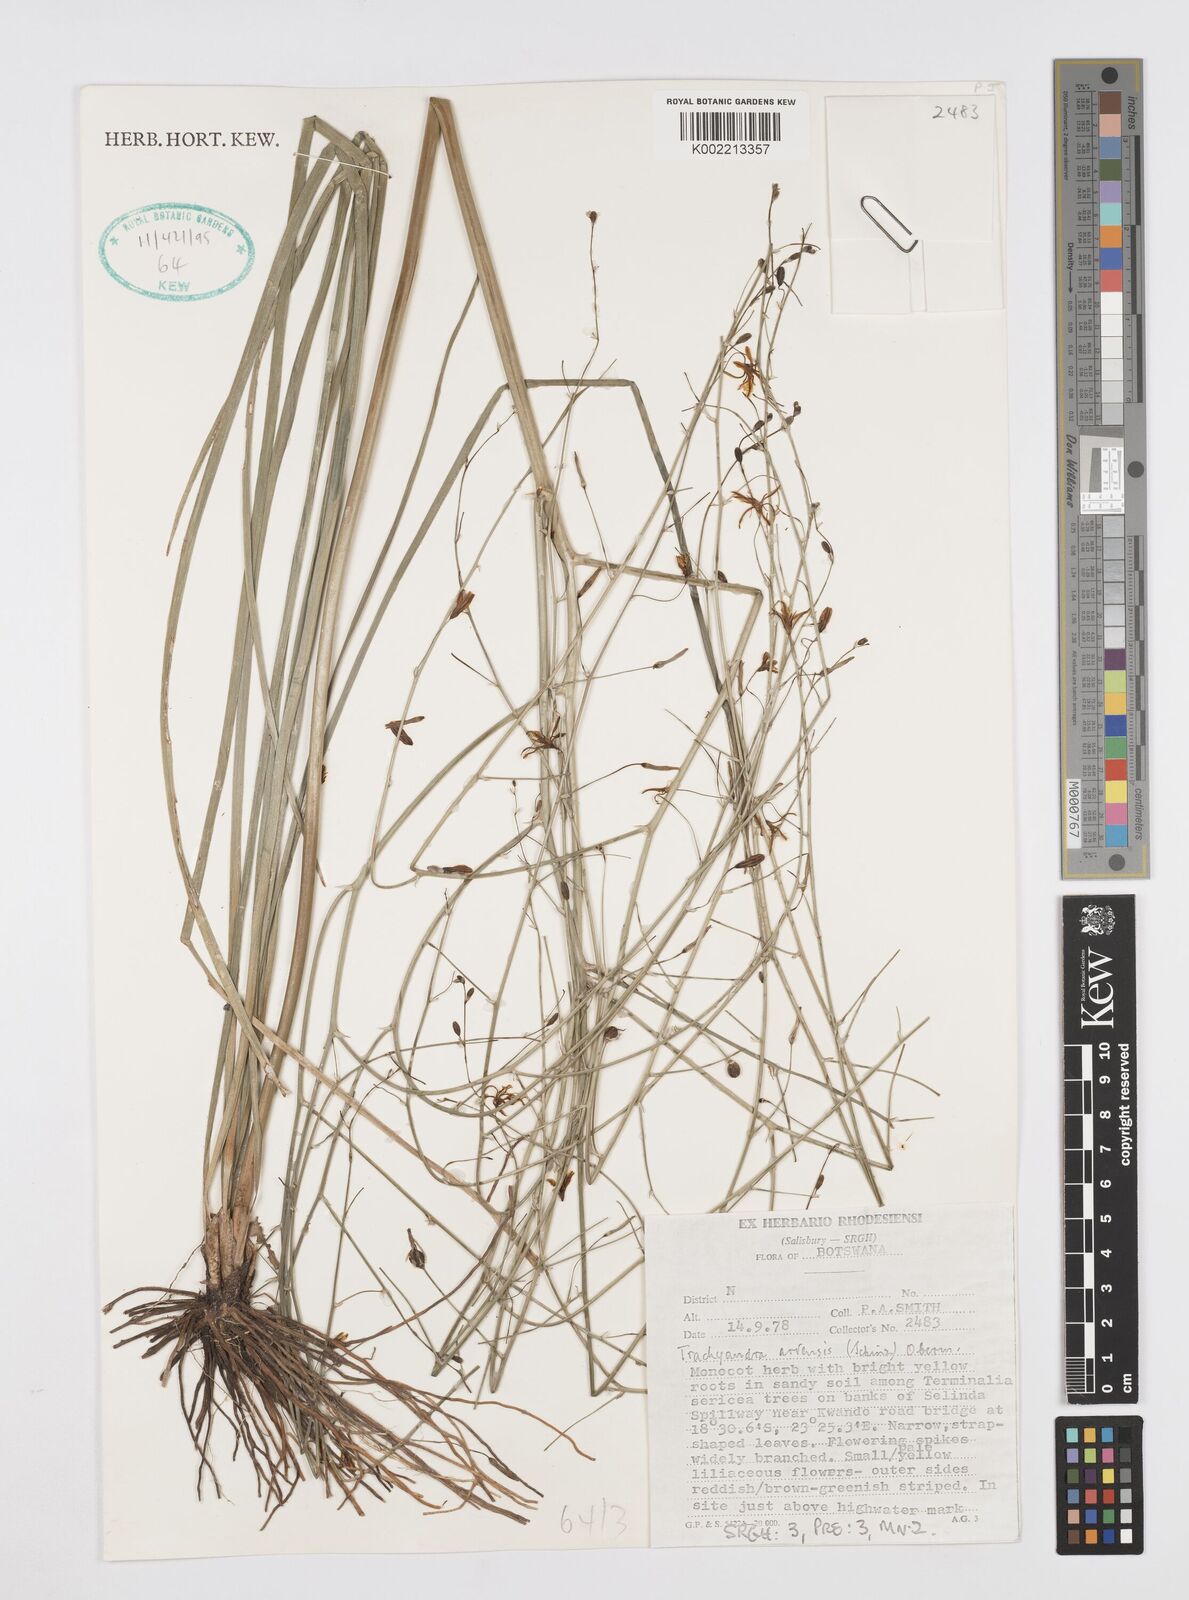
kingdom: Plantae
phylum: Tracheophyta
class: Liliopsida
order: Asparagales
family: Asphodelaceae
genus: Trachyandra
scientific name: Trachyandra arvensis
